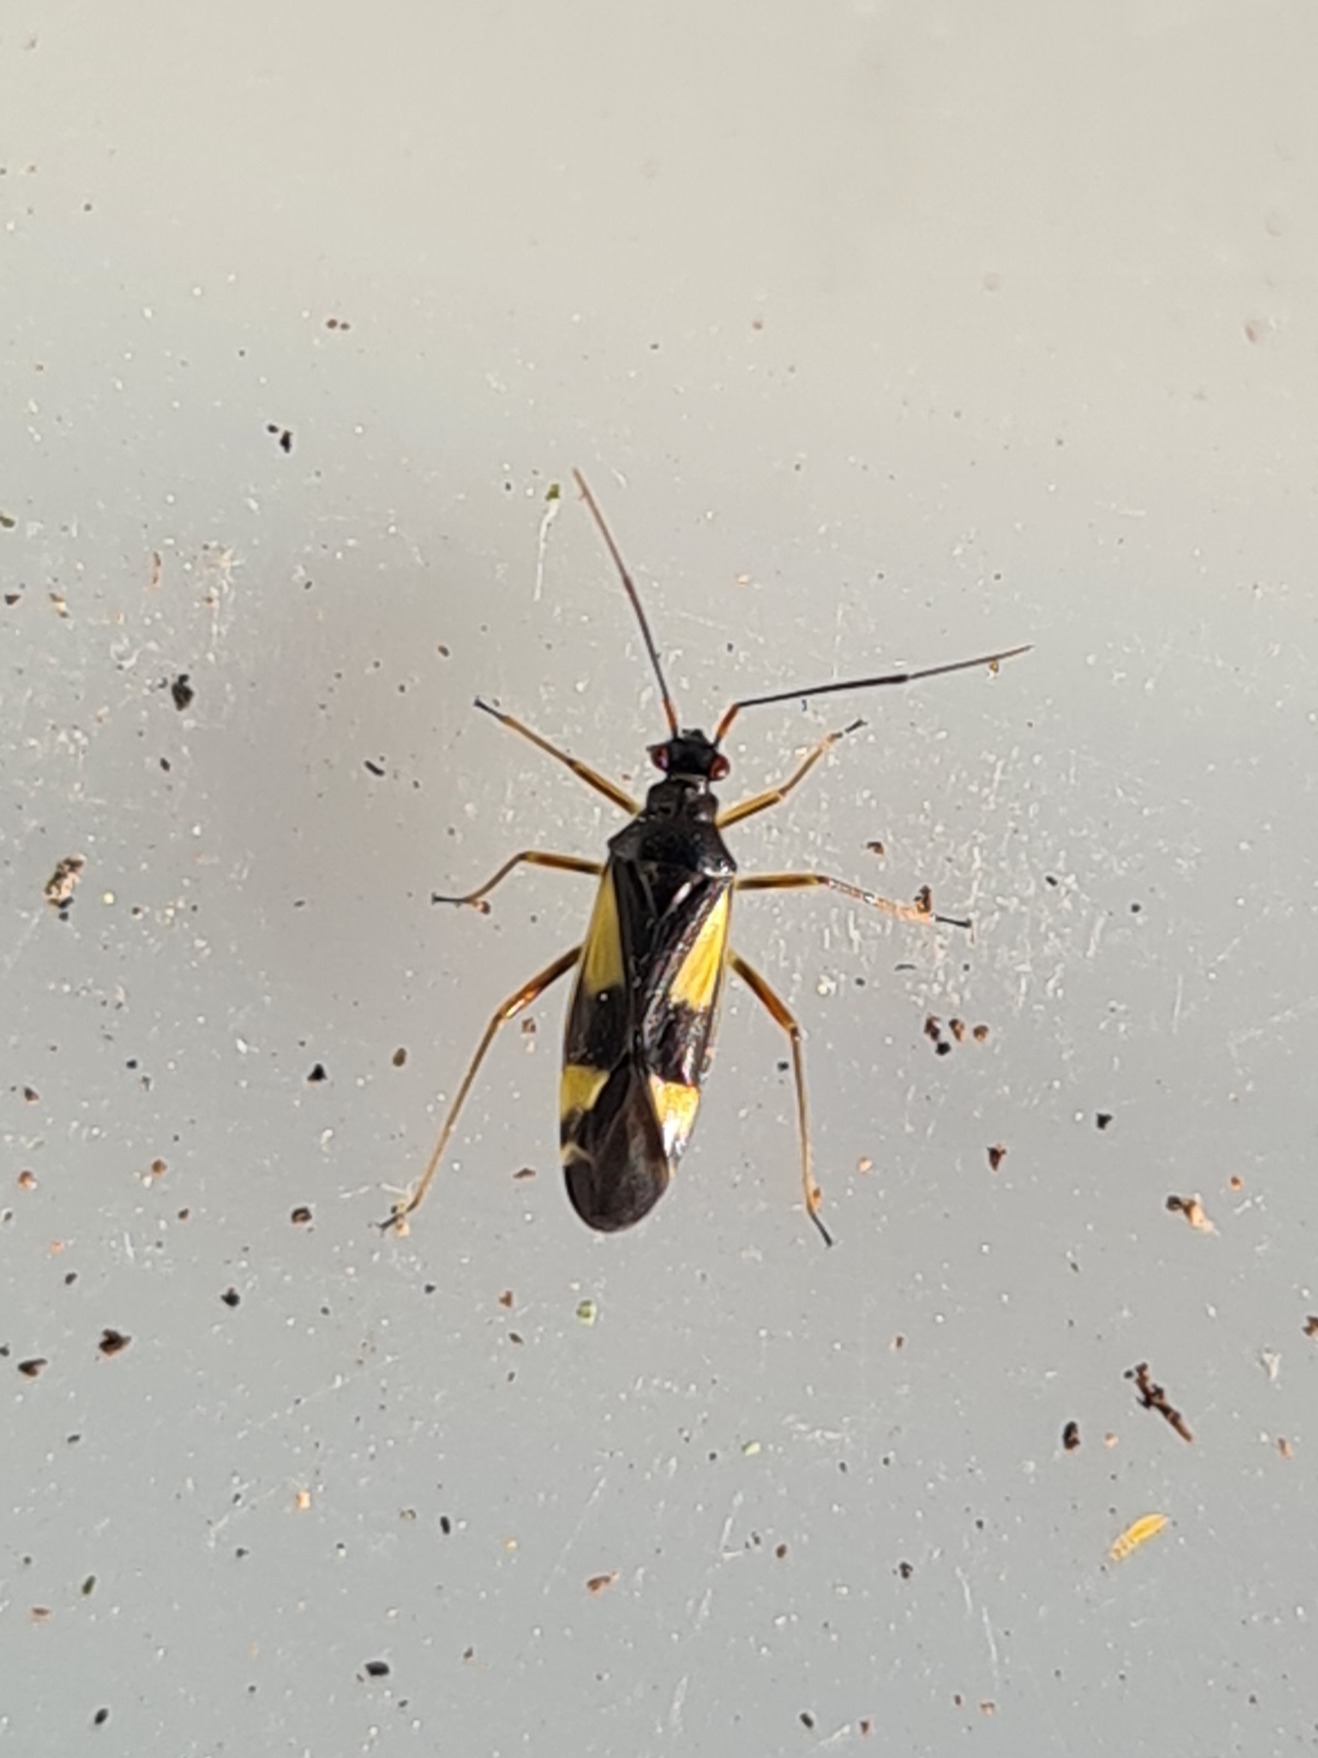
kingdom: Animalia
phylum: Arthropoda
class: Insecta
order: Hemiptera
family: Miridae
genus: Dryophilocoris
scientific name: Dryophilocoris flavoquadrimaculatus
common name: Fireplettet blomstertæge
